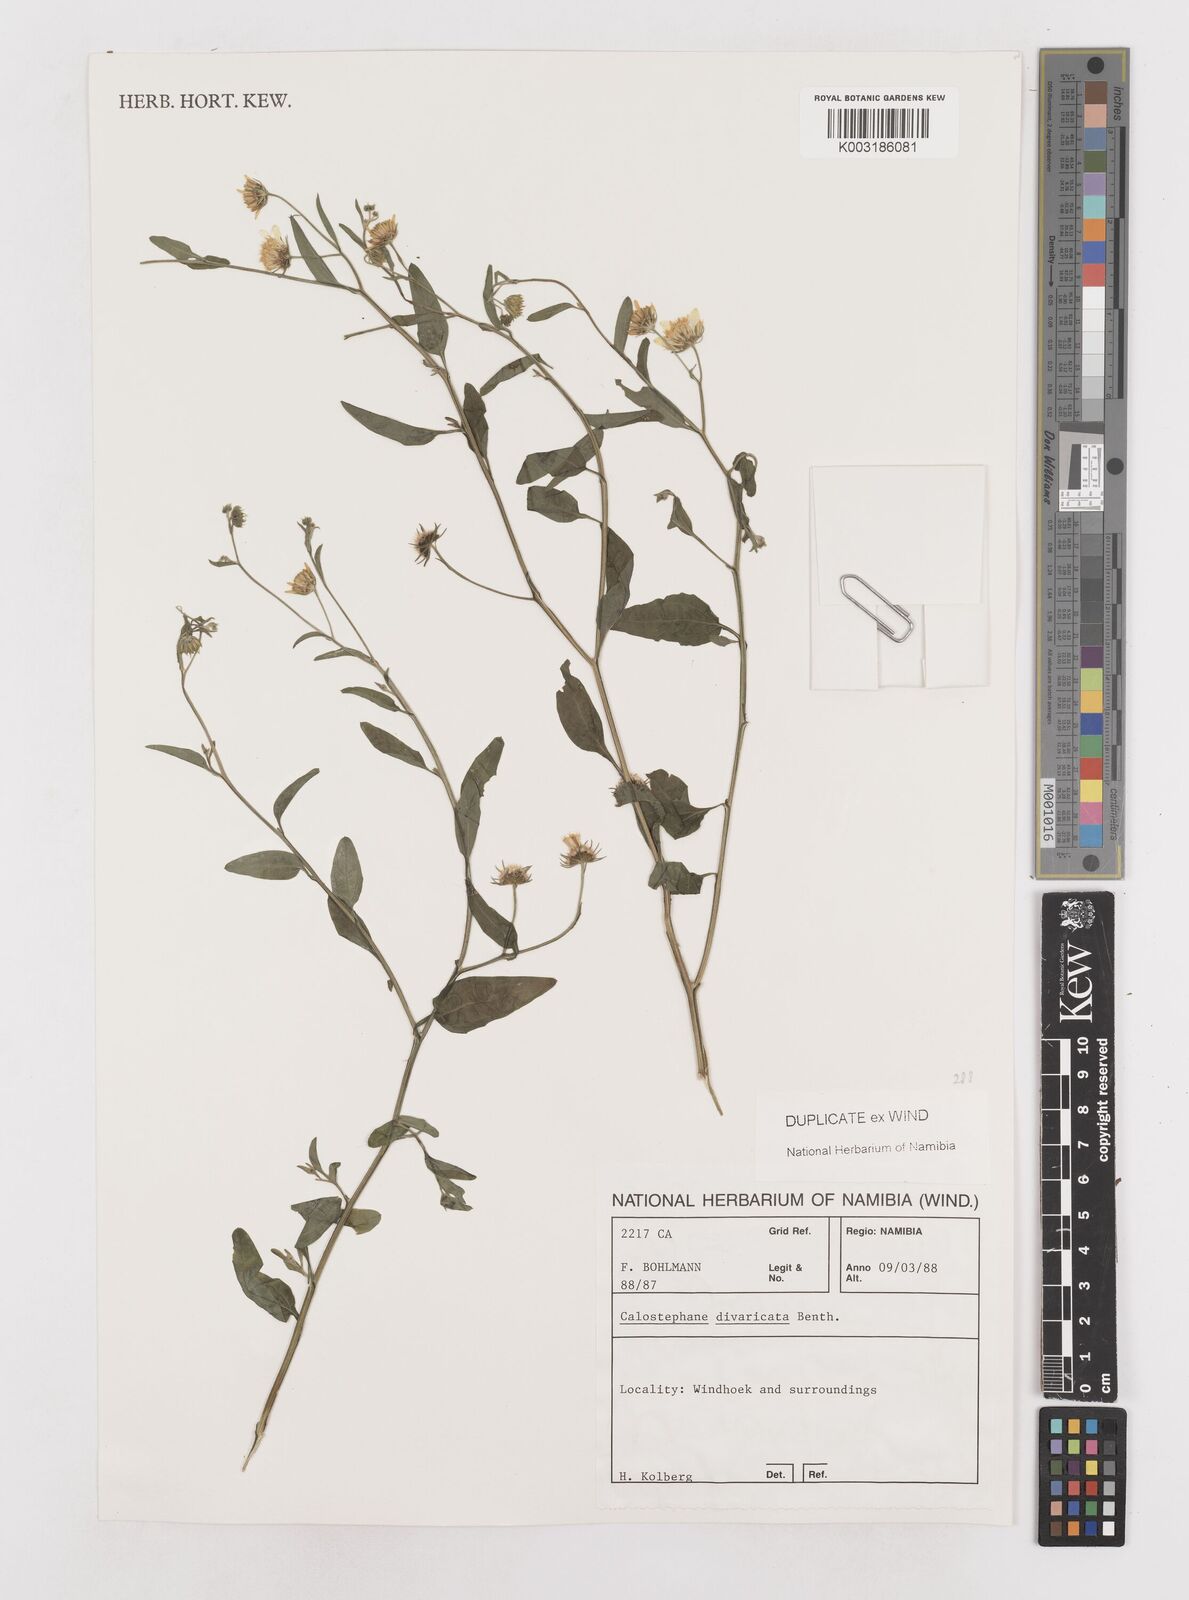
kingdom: Plantae
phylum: Tracheophyta
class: Magnoliopsida
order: Asterales
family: Asteraceae
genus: Calostephane
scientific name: Calostephane divaricata
